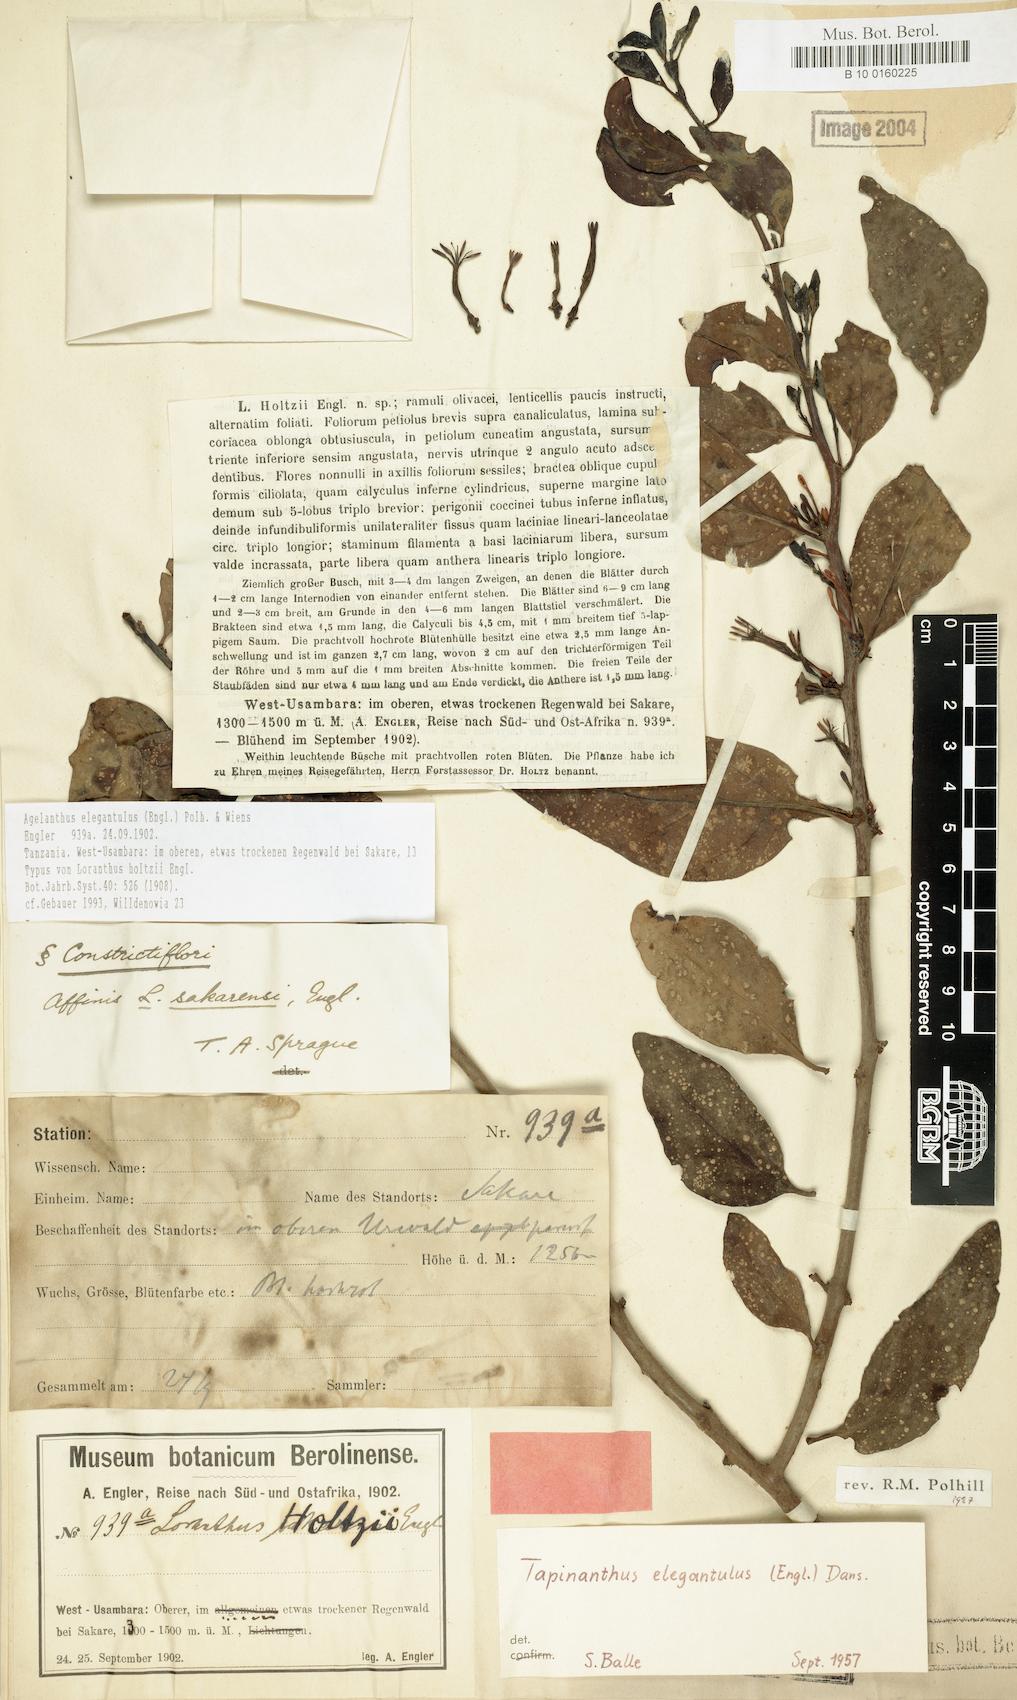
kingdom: Plantae
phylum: Tracheophyta
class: Magnoliopsida
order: Santalales
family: Loranthaceae
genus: Loranthella
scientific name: Loranthella kilimandscharica
